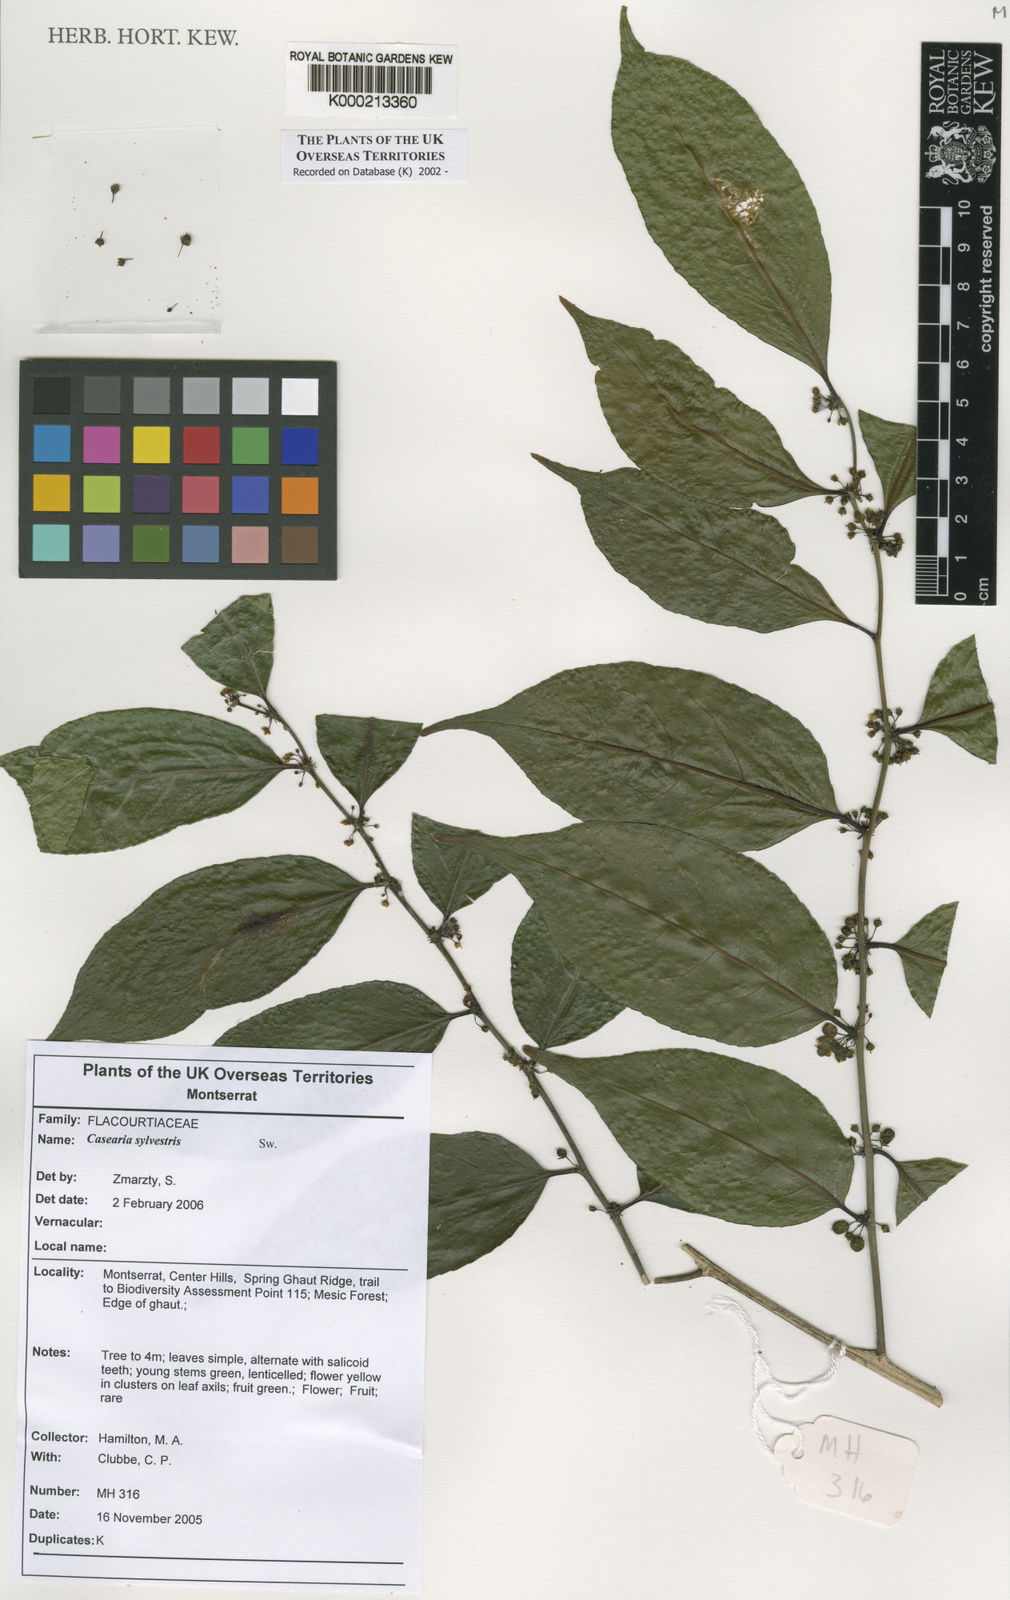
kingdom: Plantae
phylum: Tracheophyta
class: Magnoliopsida
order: Malpighiales
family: Salicaceae
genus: Casearia
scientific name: Casearia sylvestris
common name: Wild sage
